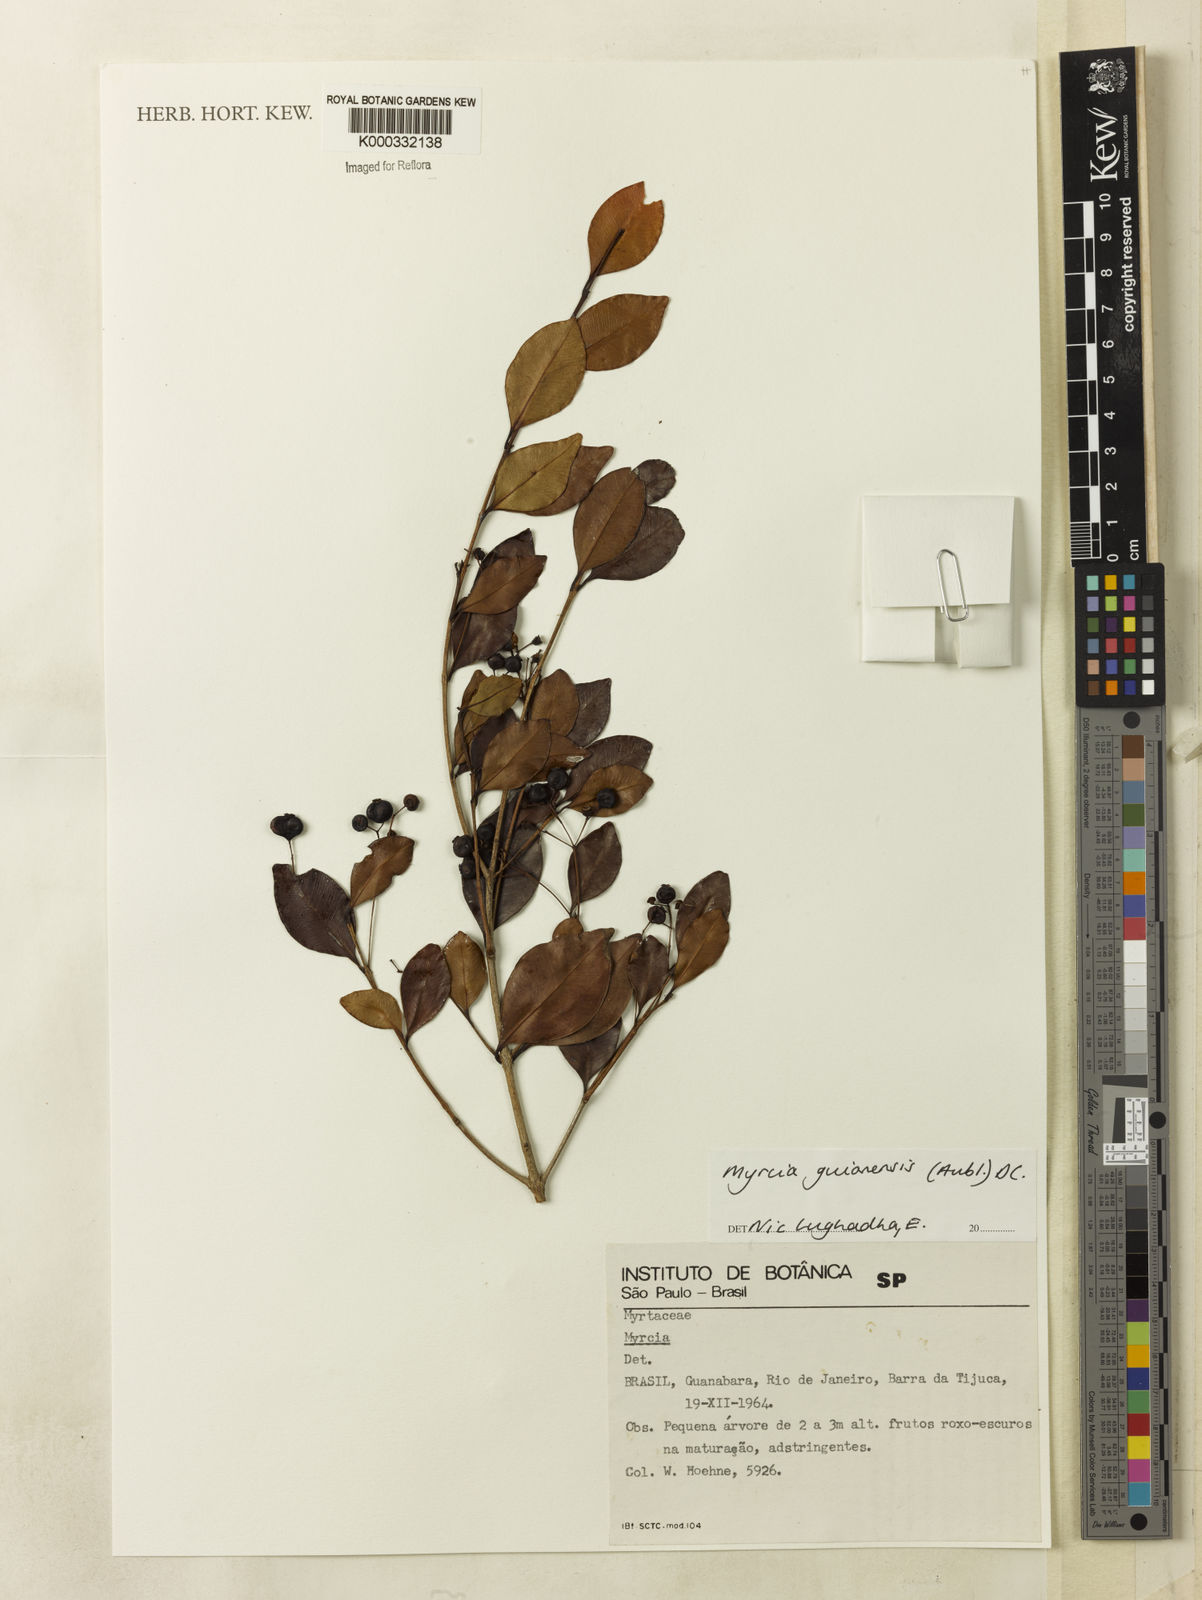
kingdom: Plantae
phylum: Tracheophyta
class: Magnoliopsida
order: Myrtales
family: Myrtaceae
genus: Myrcia
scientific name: Myrcia guianensis
